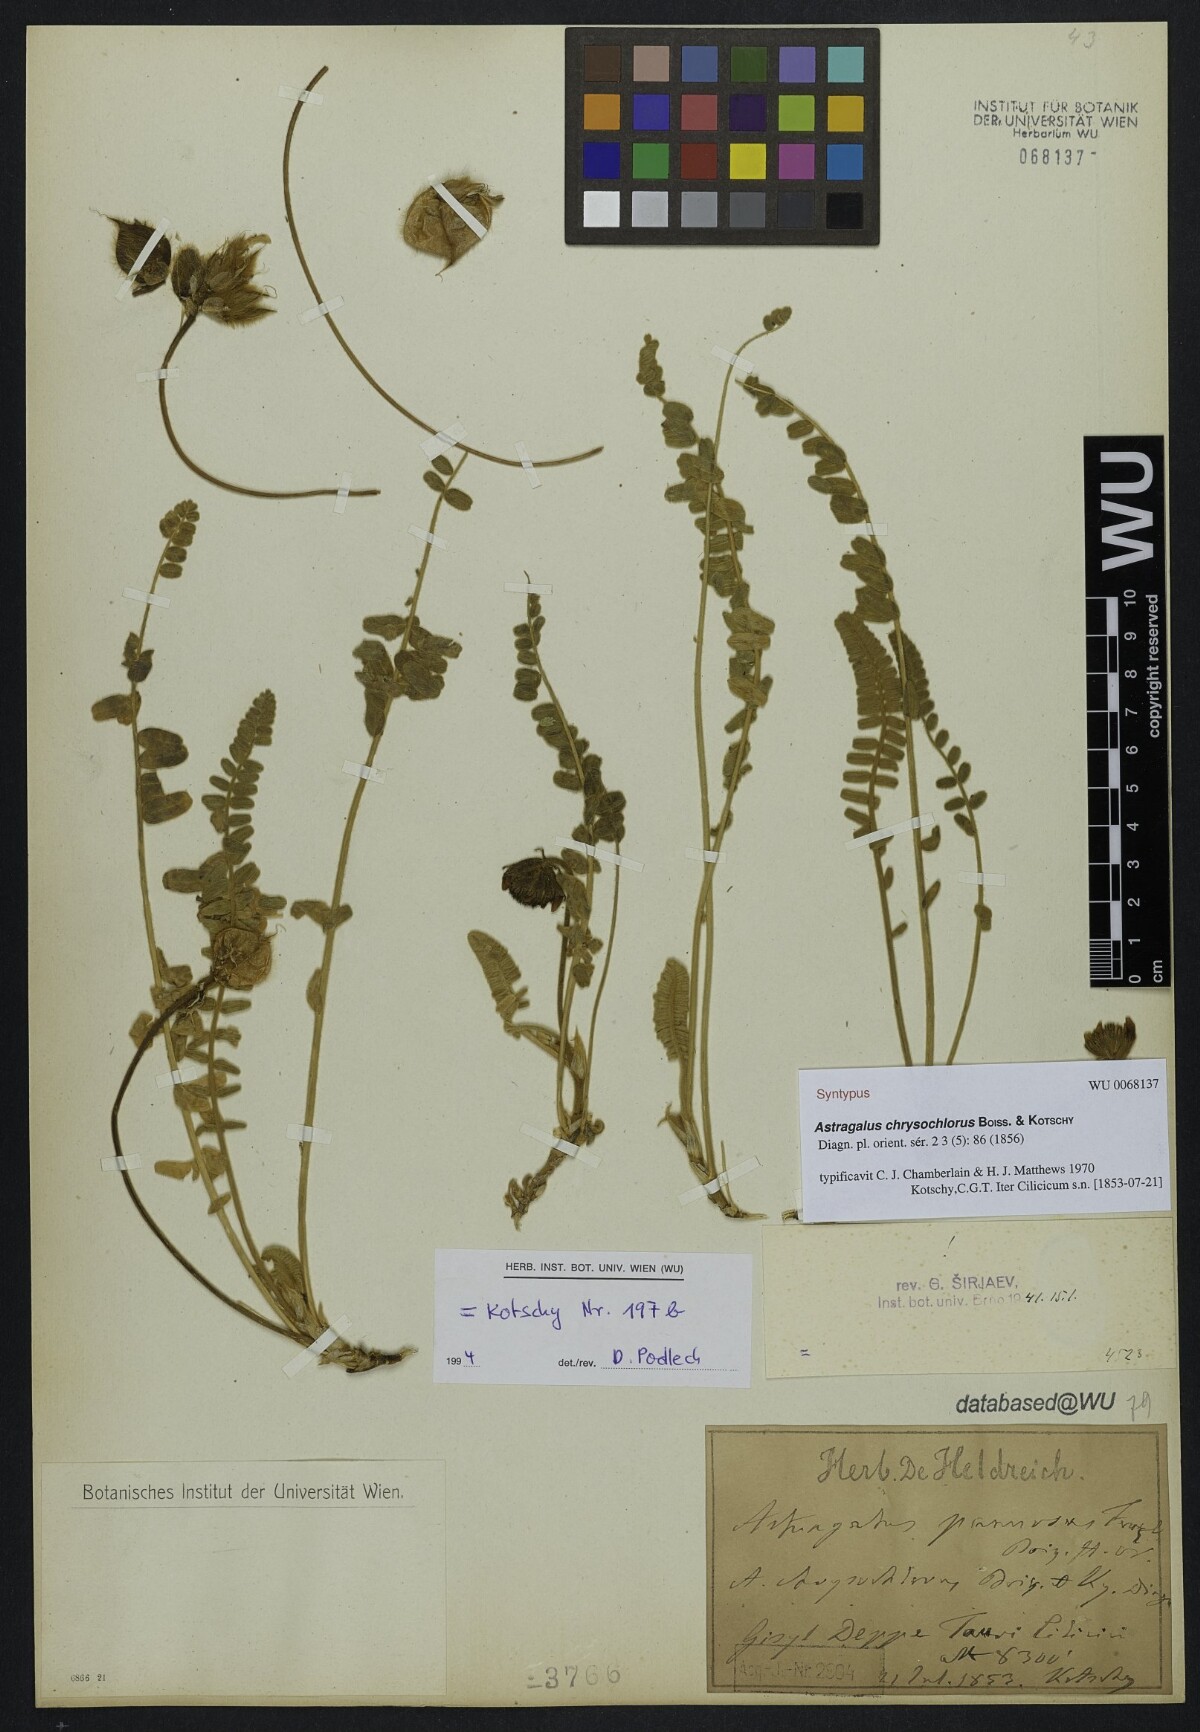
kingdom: Plantae
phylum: Tracheophyta
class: Magnoliopsida
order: Fabales
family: Fabaceae
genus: Astragalus
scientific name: Astragalus chrysochlorus
